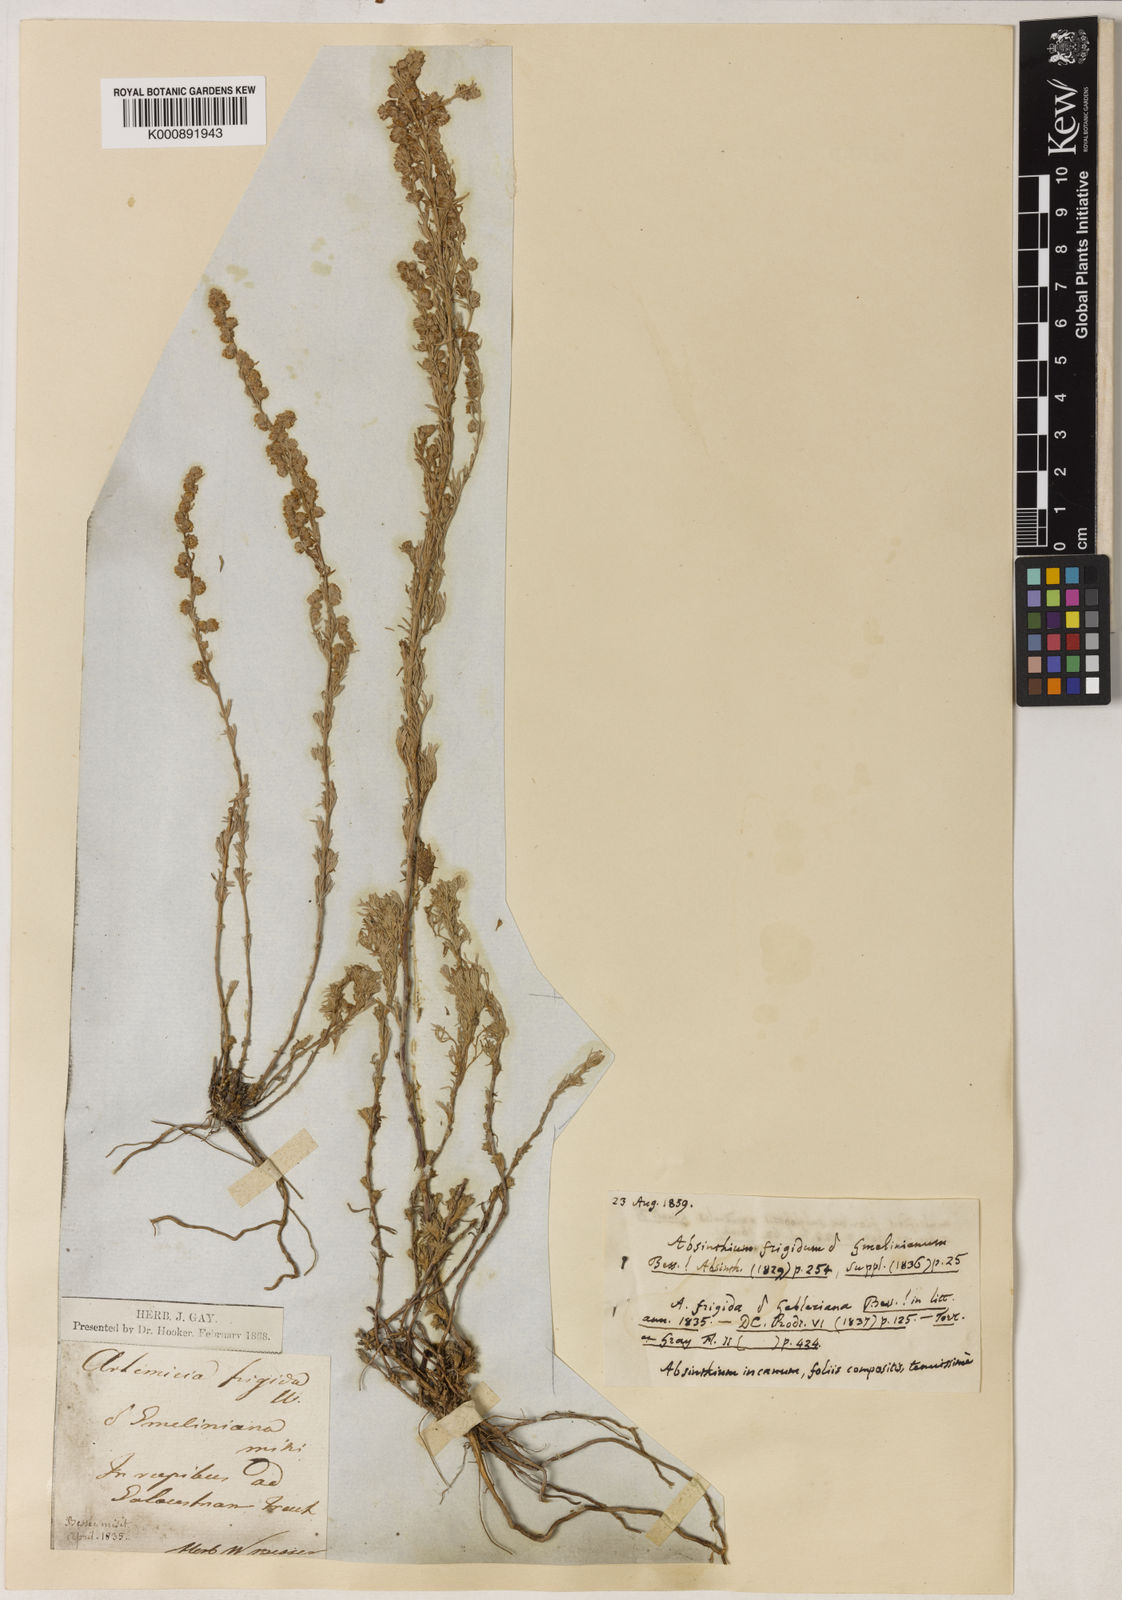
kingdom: Plantae
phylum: Tracheophyta
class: Magnoliopsida
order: Asterales
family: Asteraceae
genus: Artemisia
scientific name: Artemisia frigida
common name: Prairie sagewort
